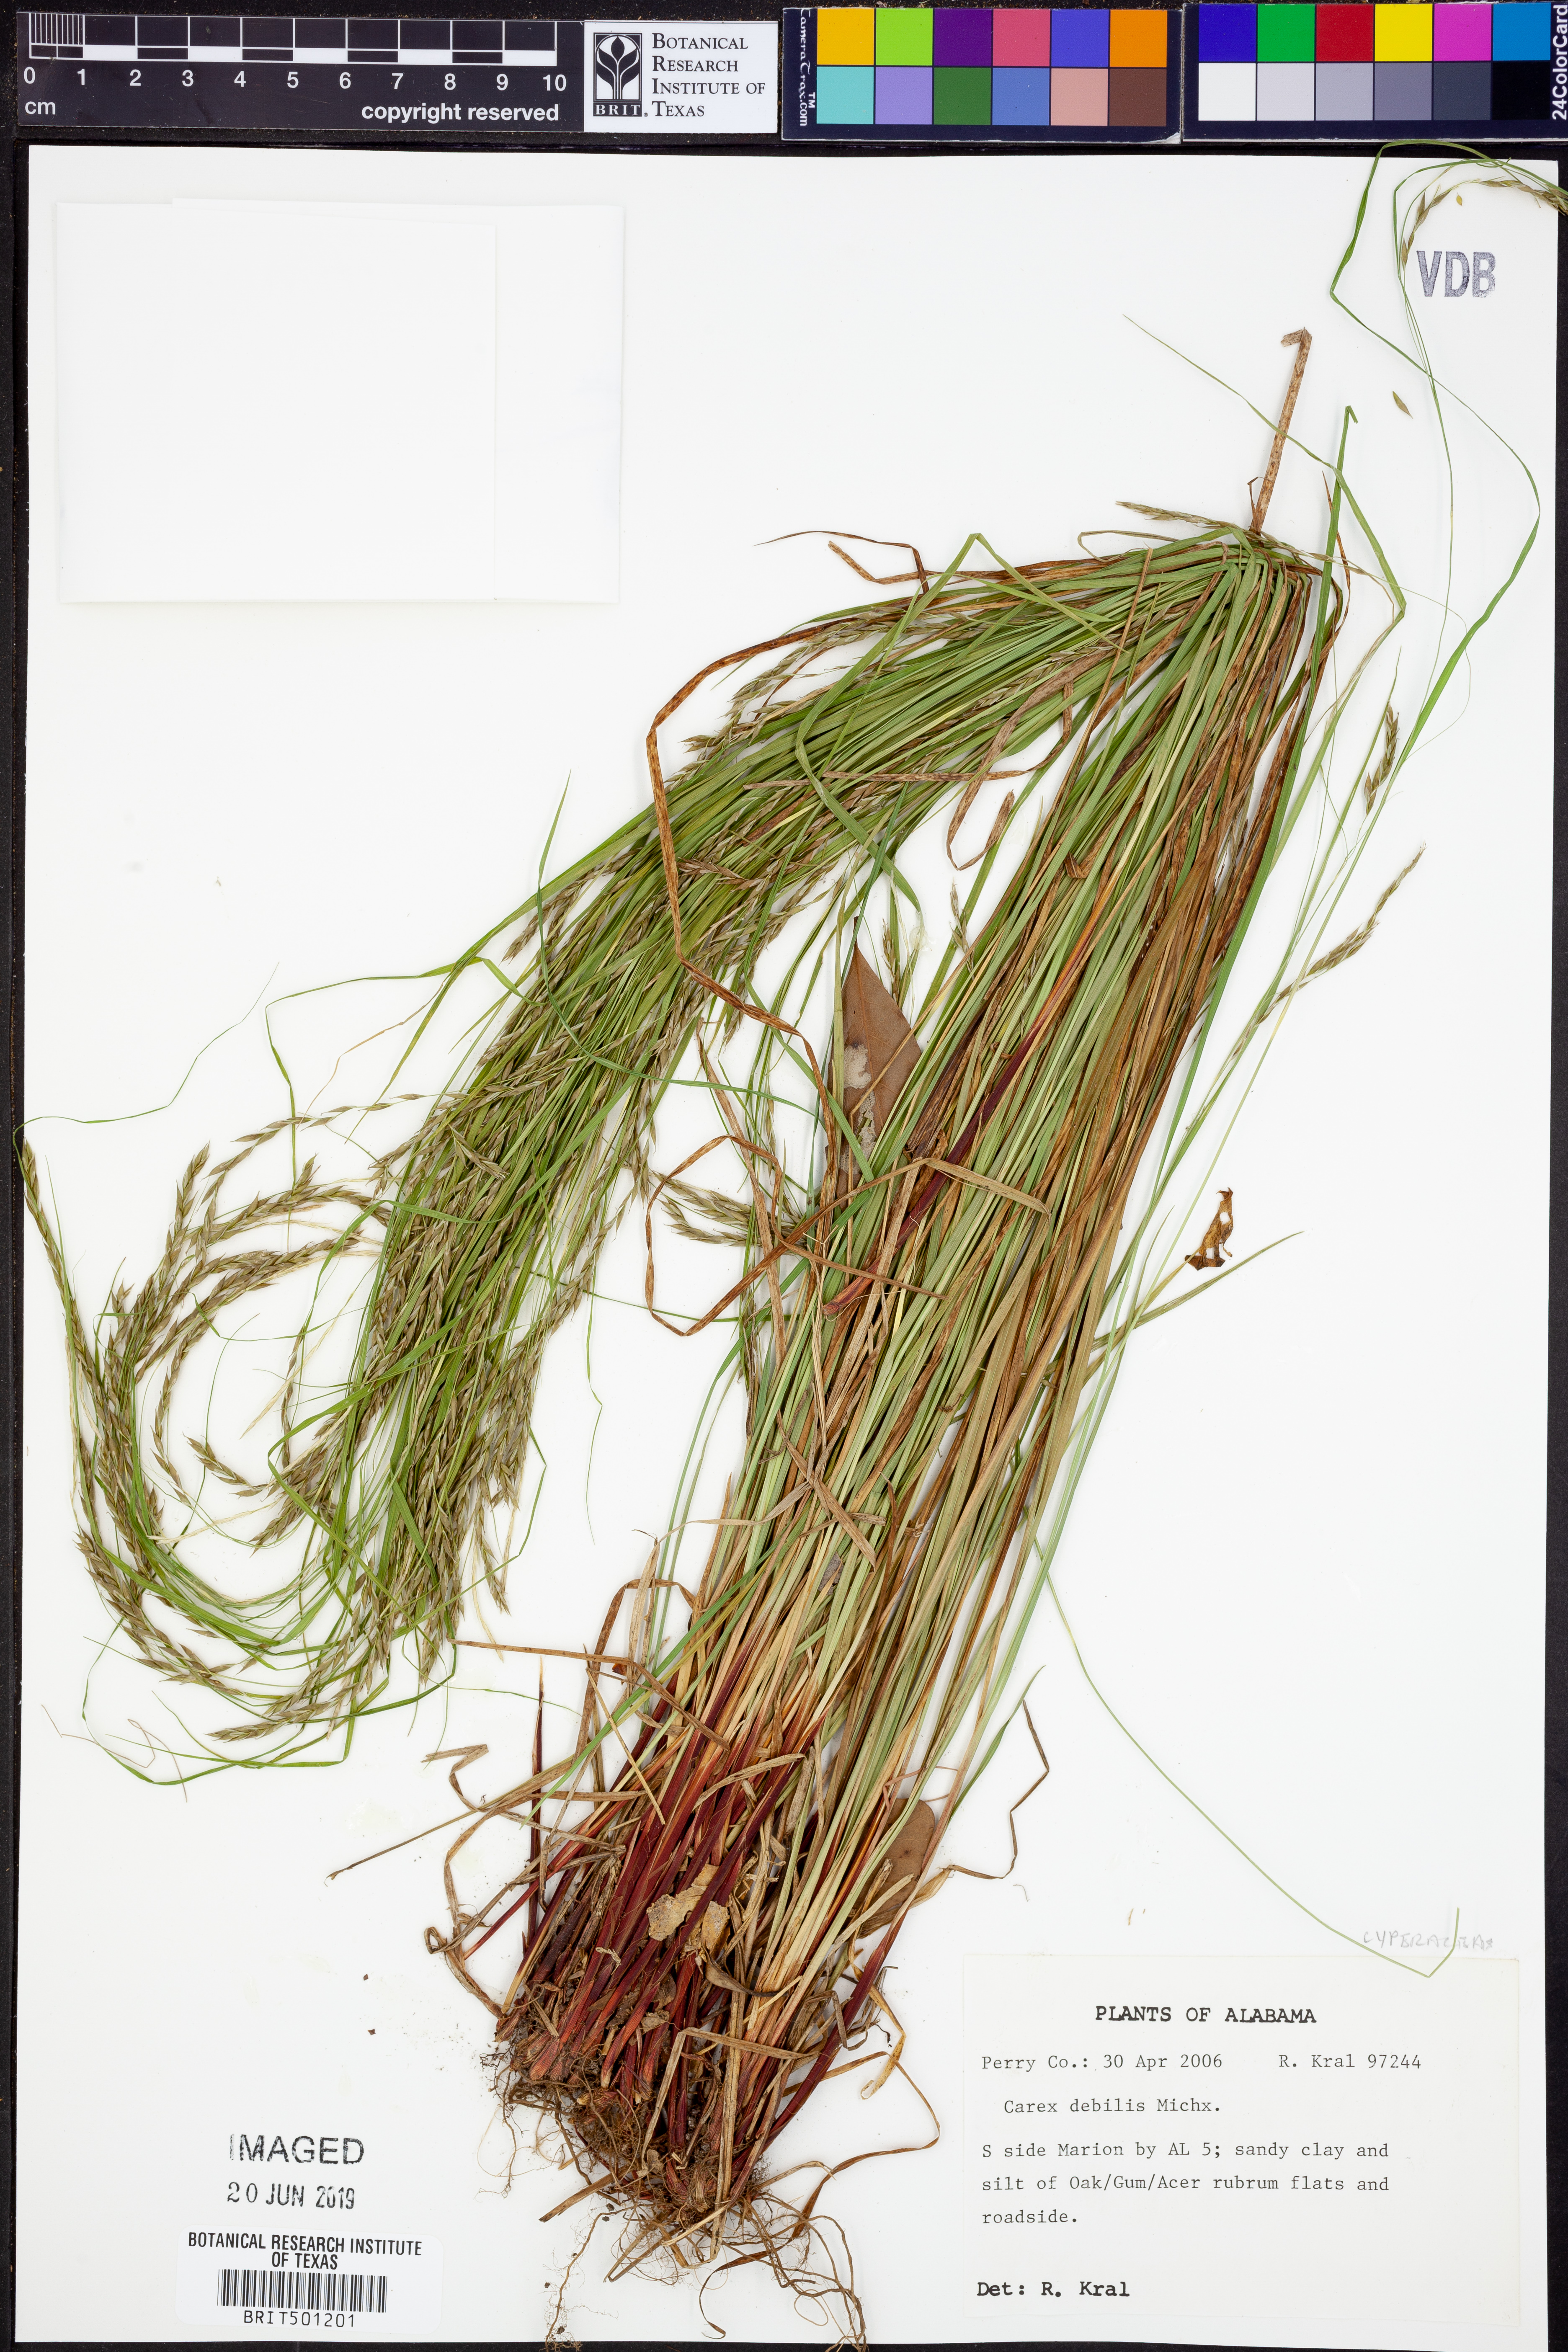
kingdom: Plantae
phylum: Tracheophyta
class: Liliopsida
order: Poales
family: Cyperaceae
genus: Carex
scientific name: Carex debilis
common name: White-edge sedge
